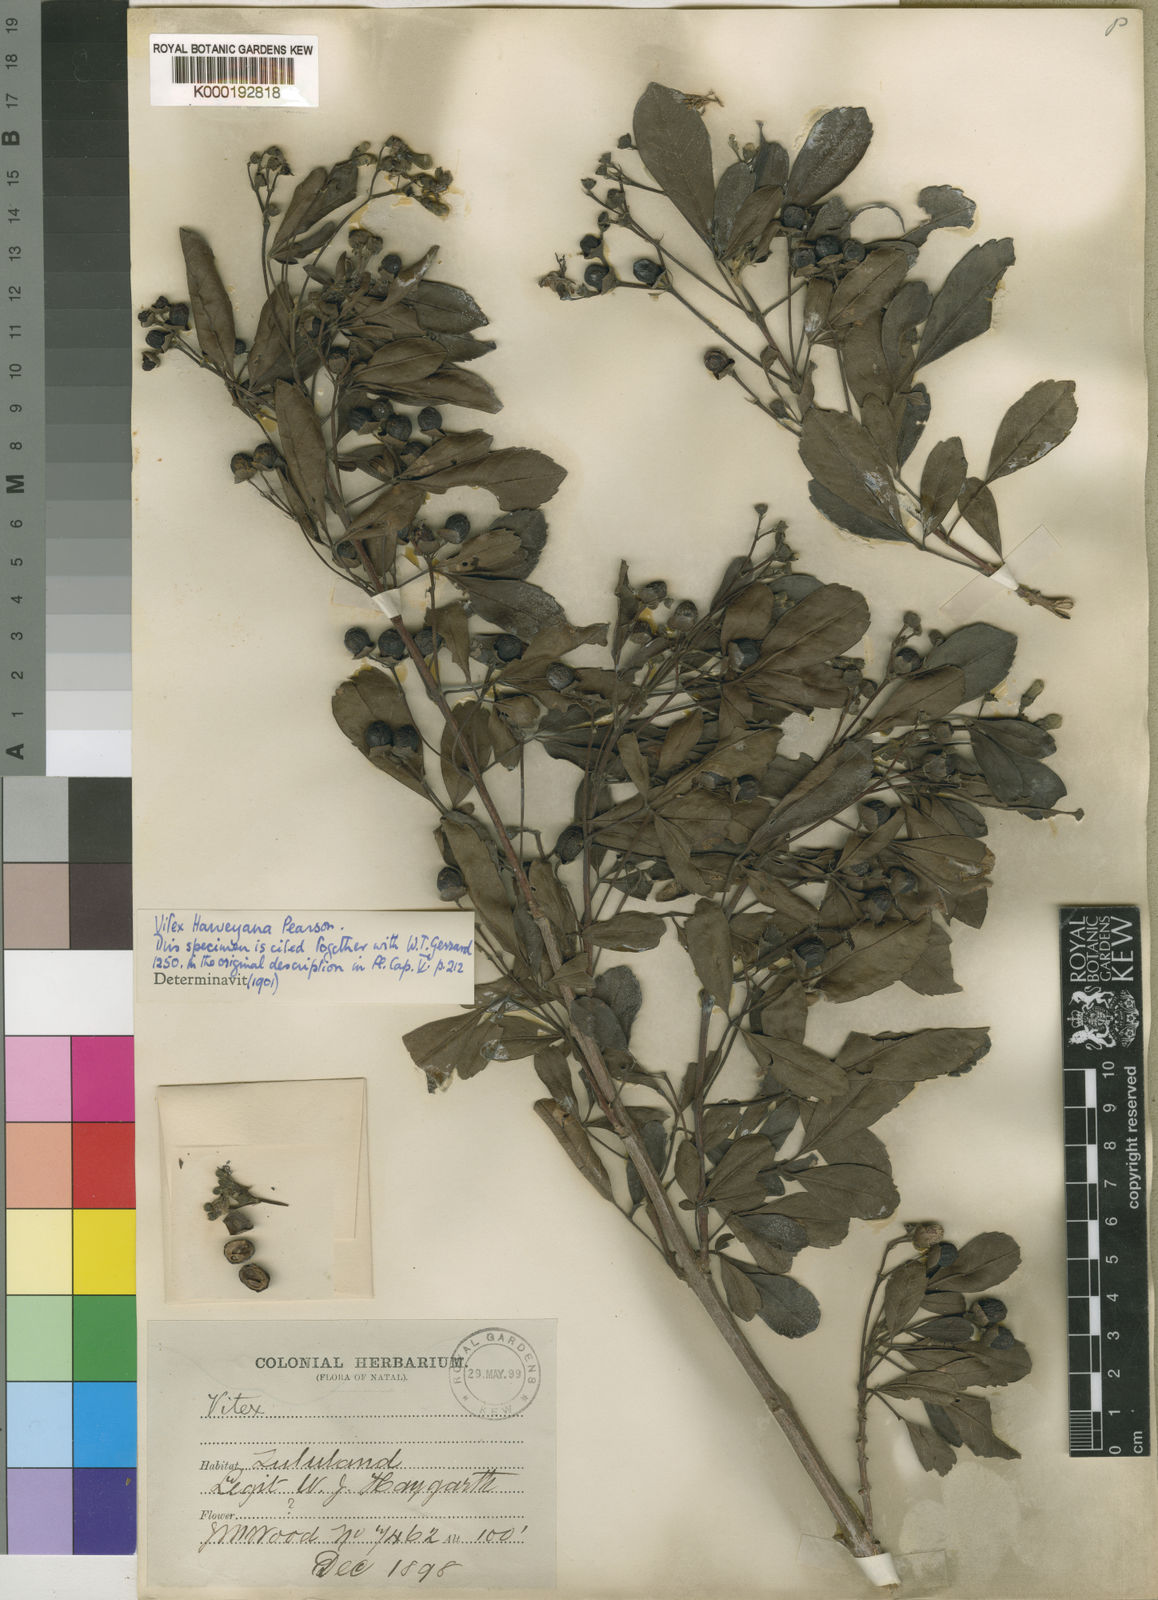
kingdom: Plantae
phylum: Tracheophyta
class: Magnoliopsida
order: Lamiales
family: Lamiaceae
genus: Vitex
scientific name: Vitex harveyana
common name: Scrambling fingerleaf
